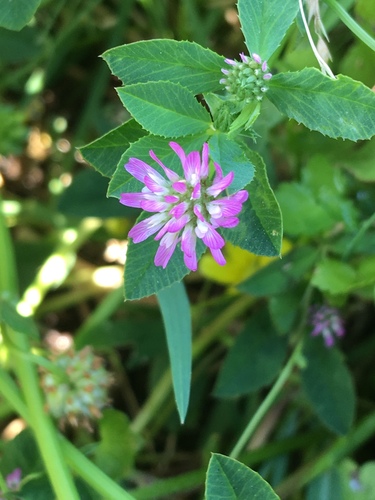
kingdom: Plantae
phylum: Tracheophyta
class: Magnoliopsida
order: Fabales
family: Fabaceae
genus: Trifolium
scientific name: Trifolium resupinatum
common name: Reversed clover
